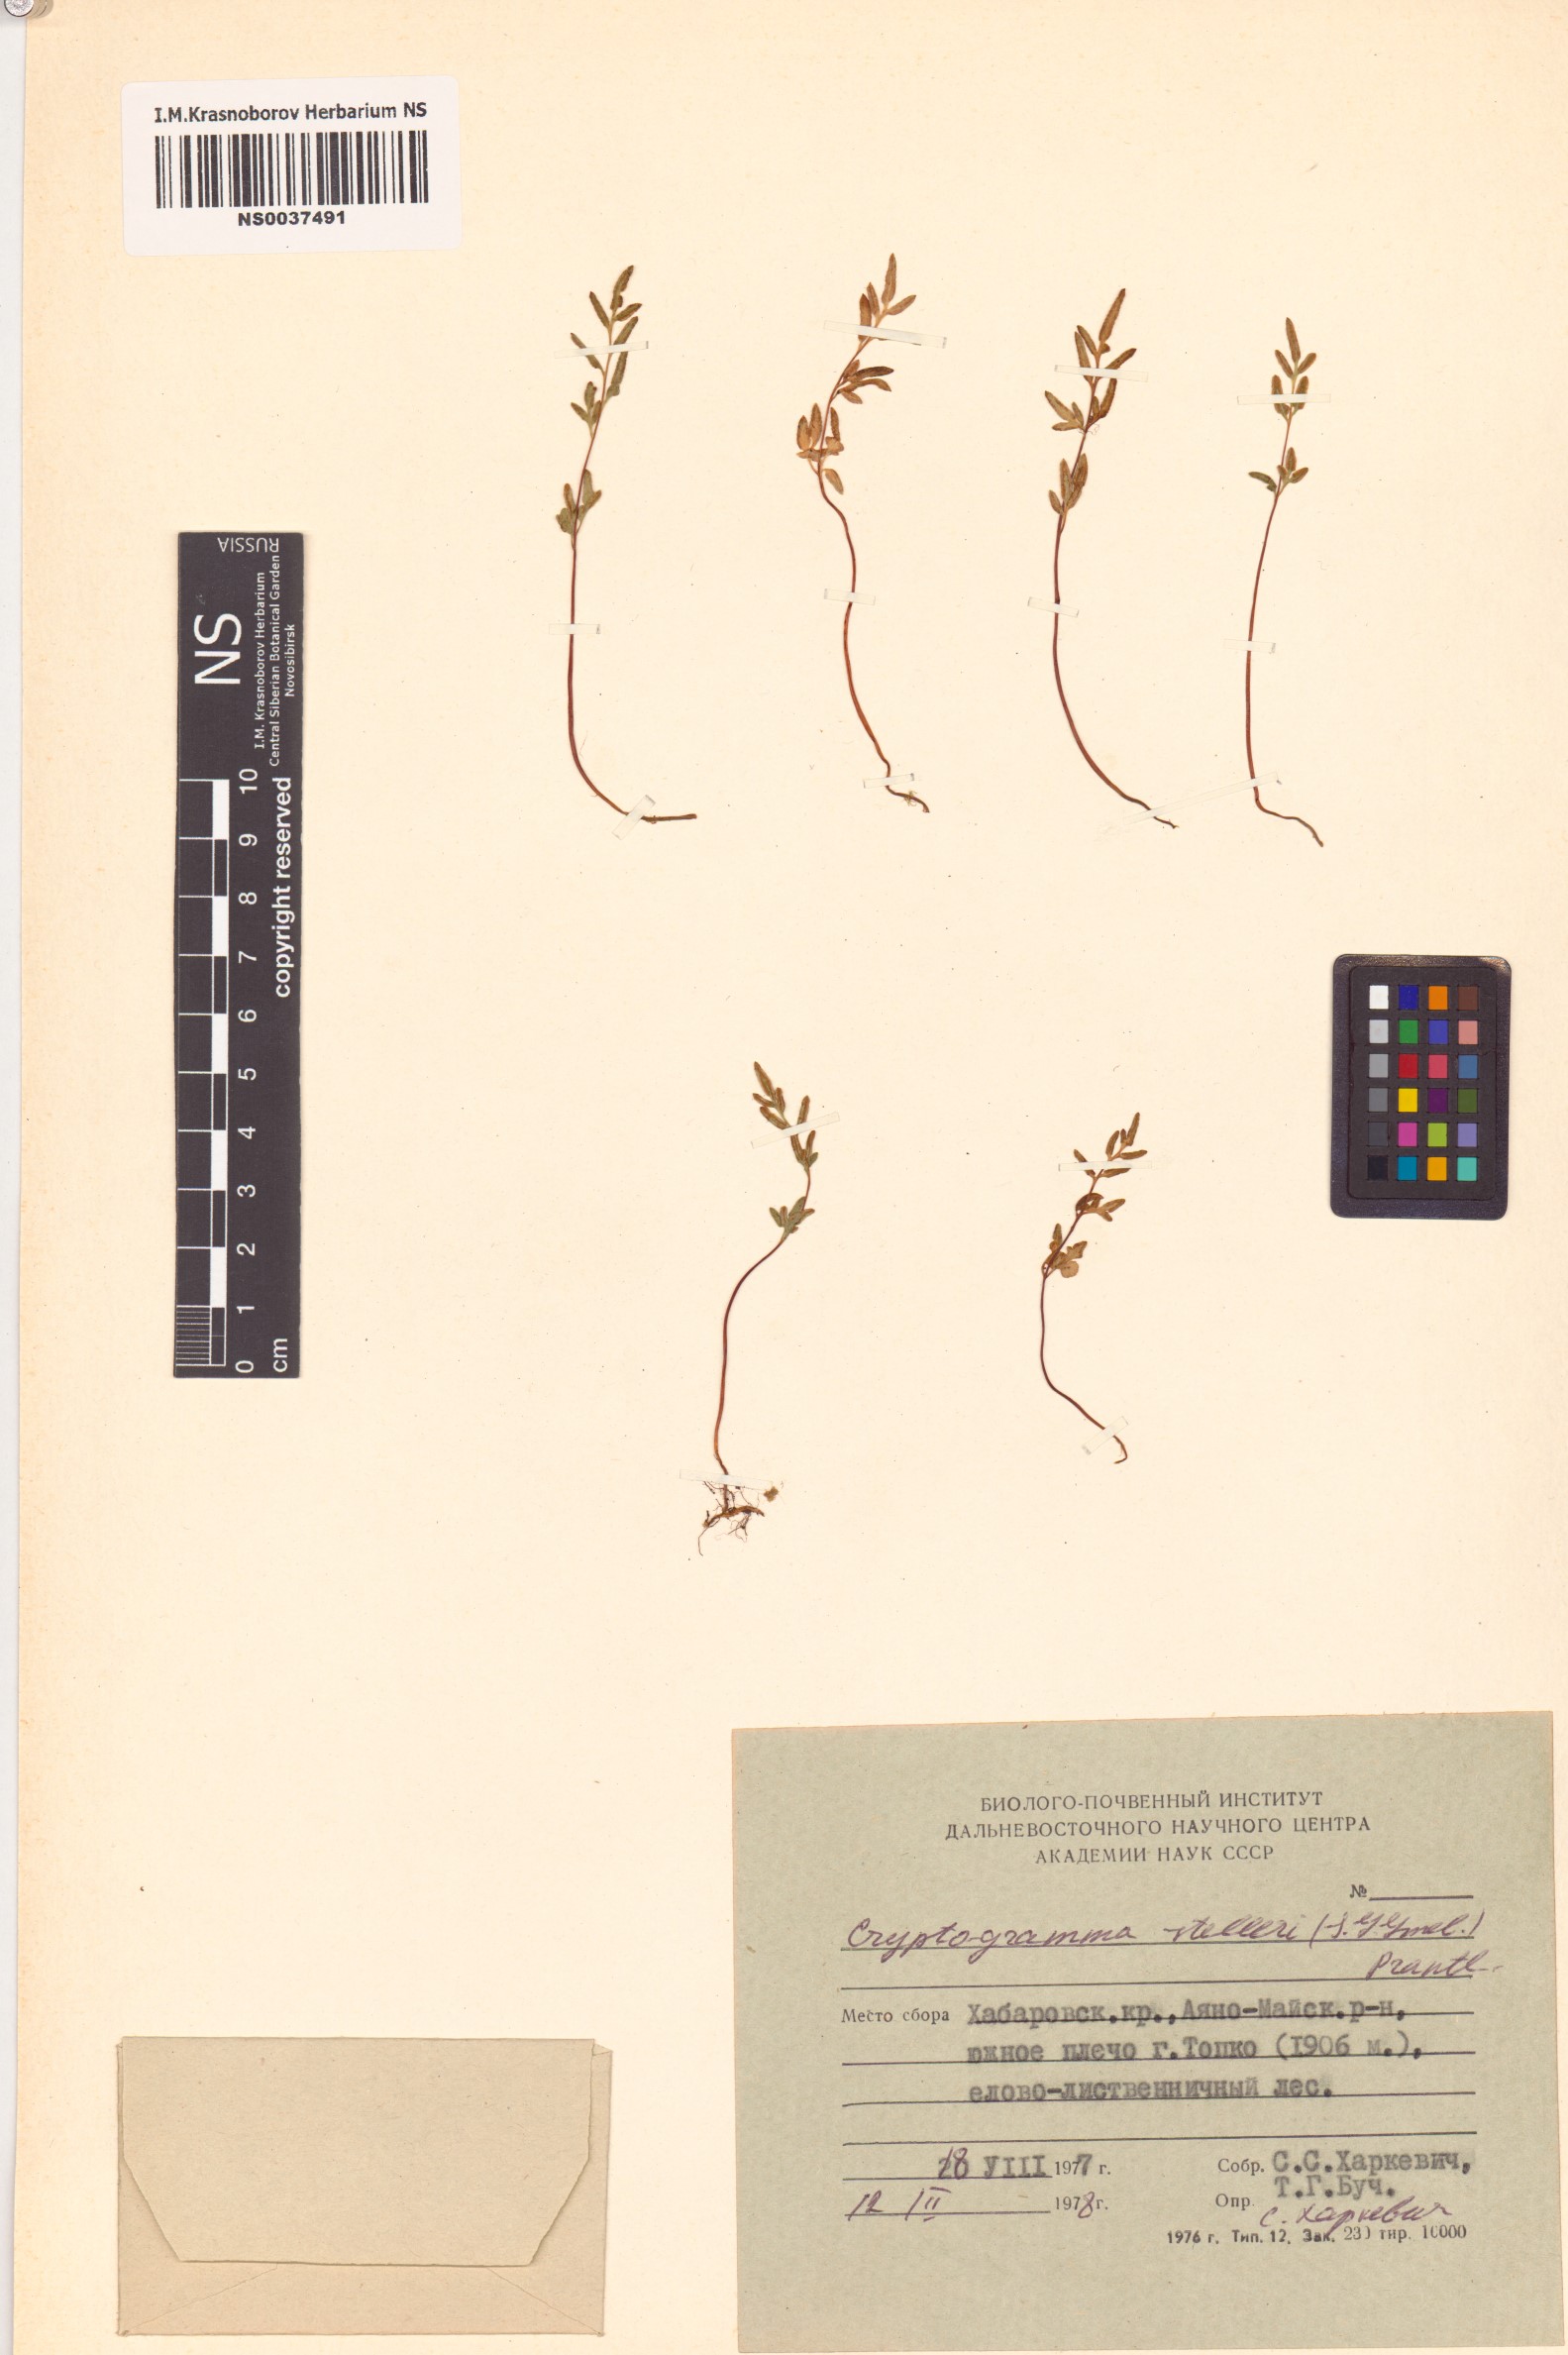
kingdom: Plantae
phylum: Tracheophyta
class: Polypodiopsida
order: Polypodiales
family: Pteridaceae
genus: Cryptogramma
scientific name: Cryptogramma stelleri
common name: Cliff-brake
